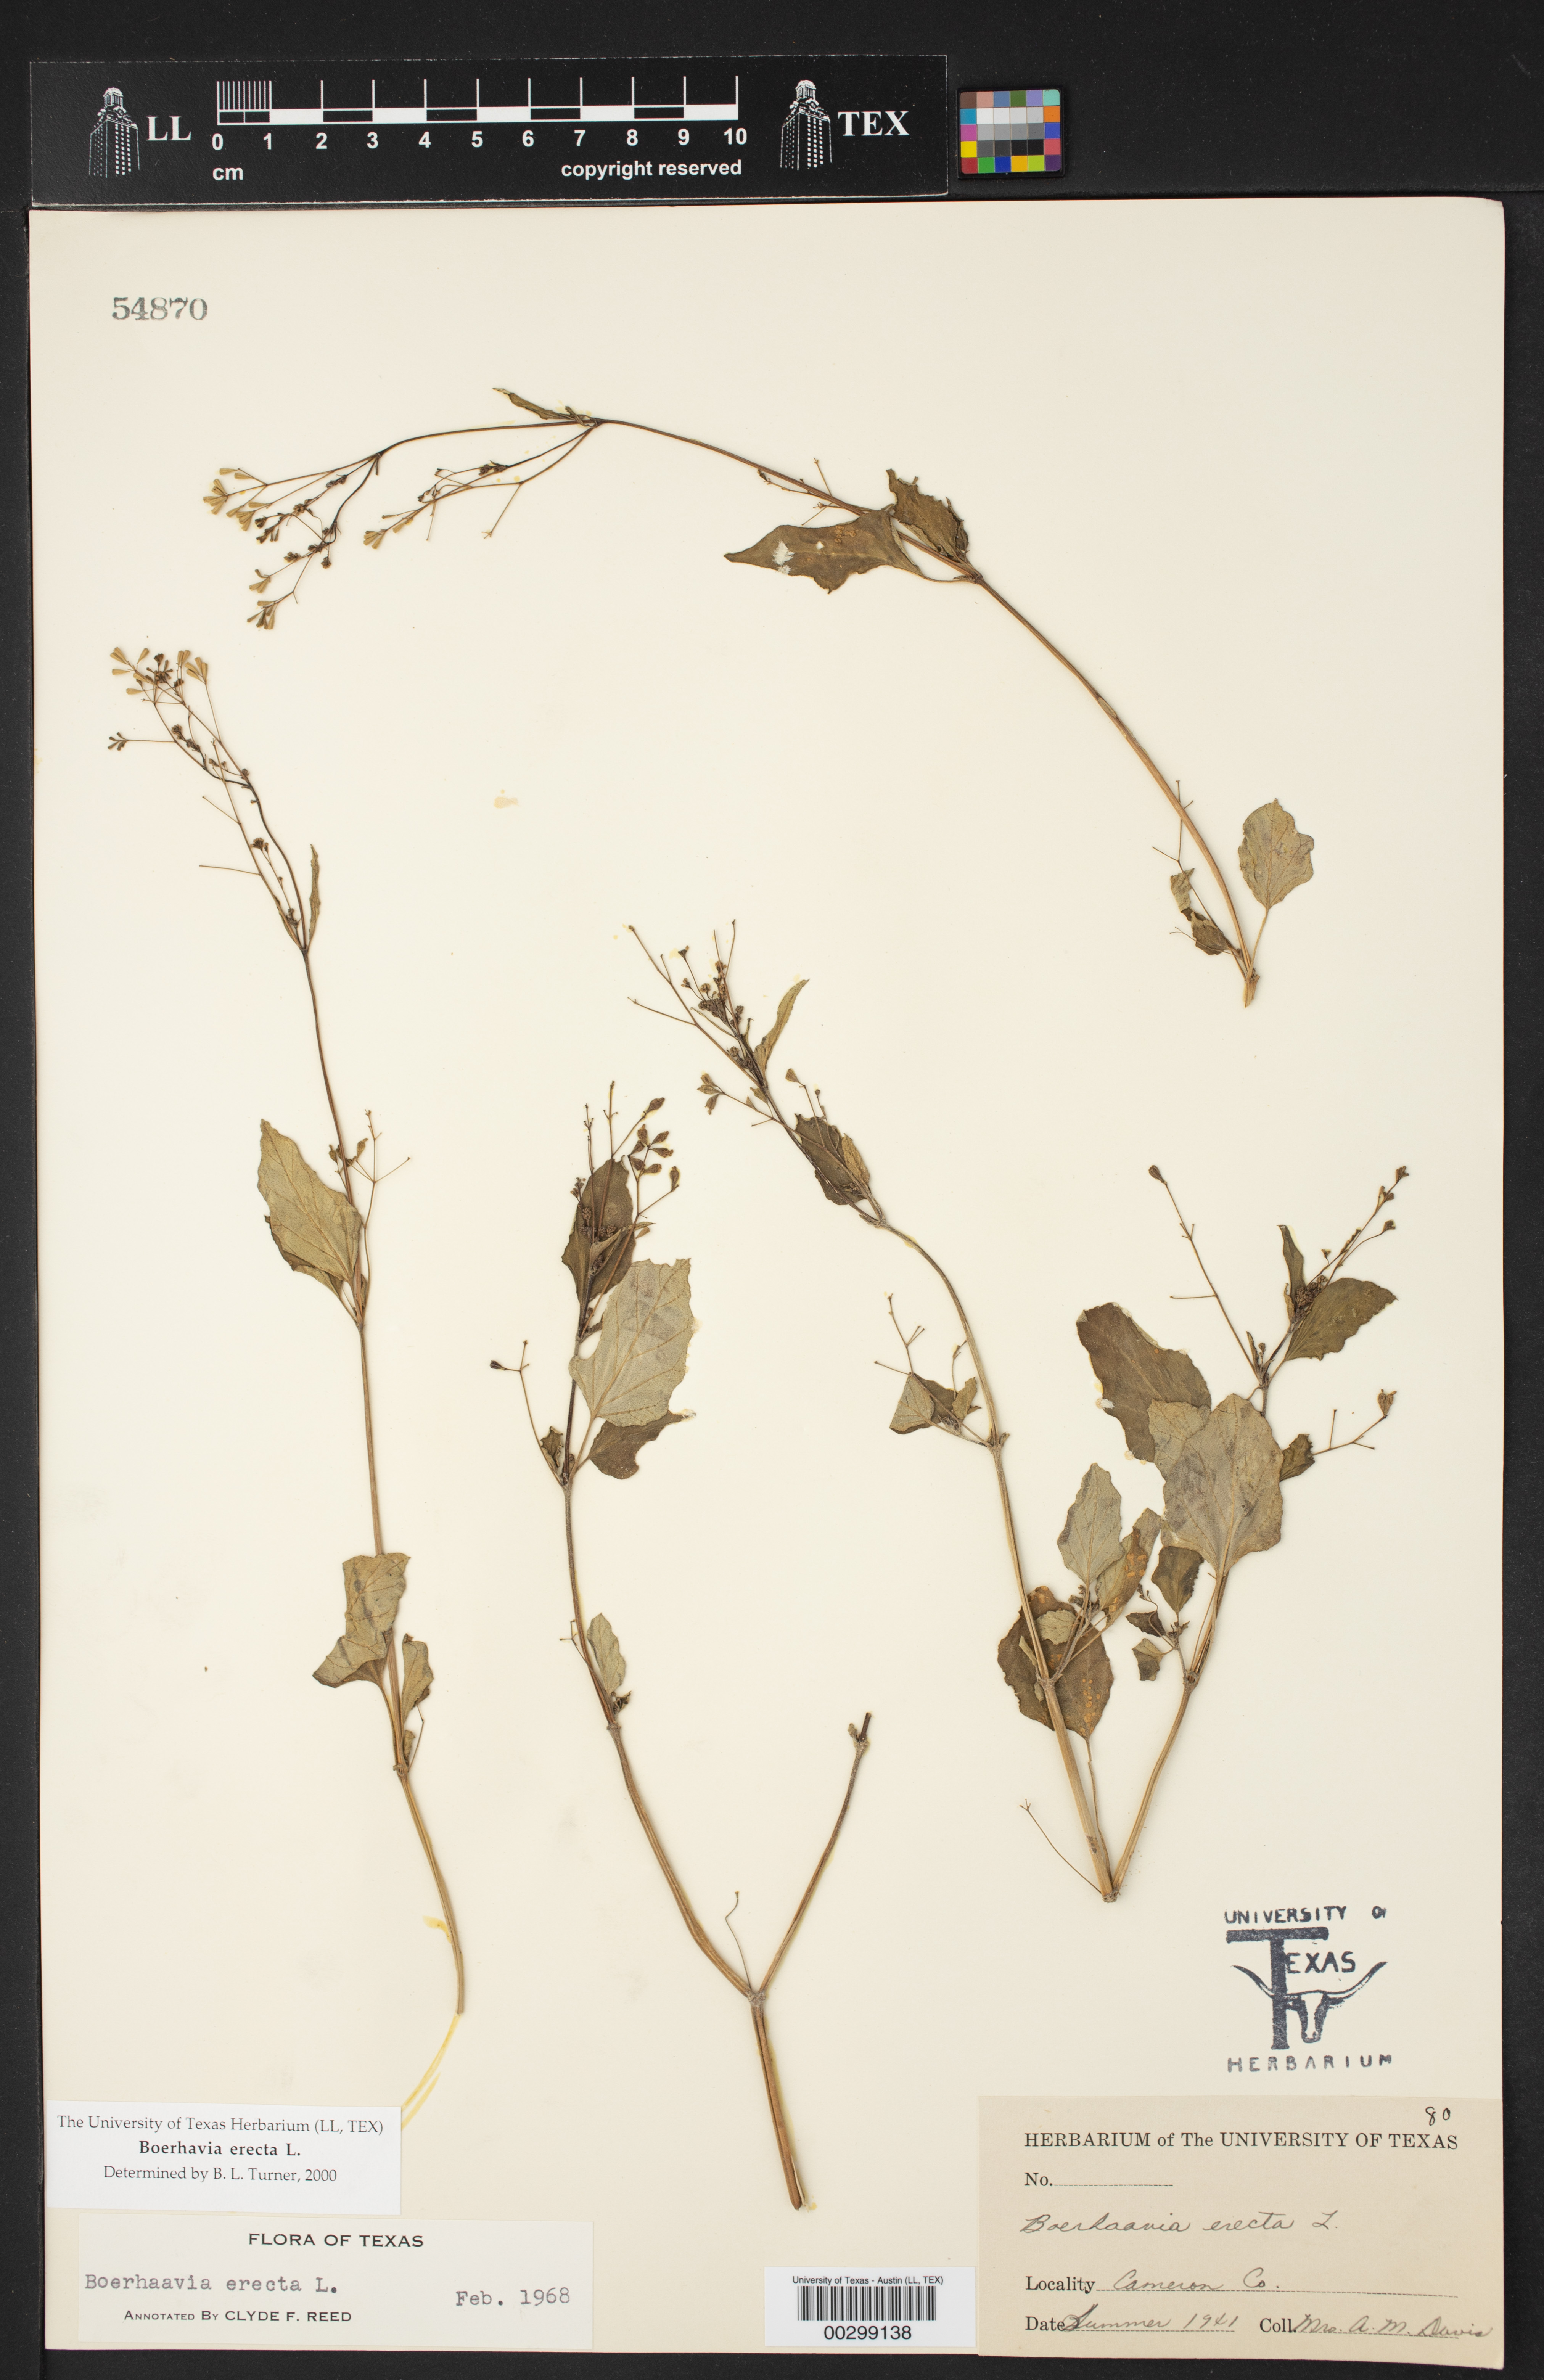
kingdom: Plantae
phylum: Tracheophyta
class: Magnoliopsida
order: Caryophyllales
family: Nyctaginaceae
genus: Boerhavia
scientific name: Boerhavia erecta
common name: Erect spiderling
